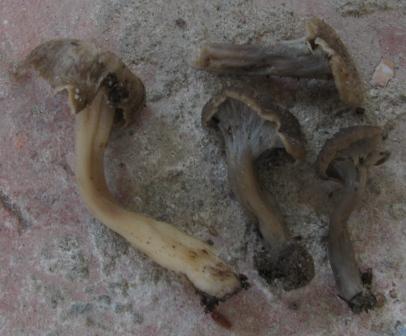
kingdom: Fungi
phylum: Basidiomycota
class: Agaricomycetes
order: Cantharellales
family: Hydnaceae
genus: Craterellus
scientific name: Craterellus undulatus
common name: liden kantarel
